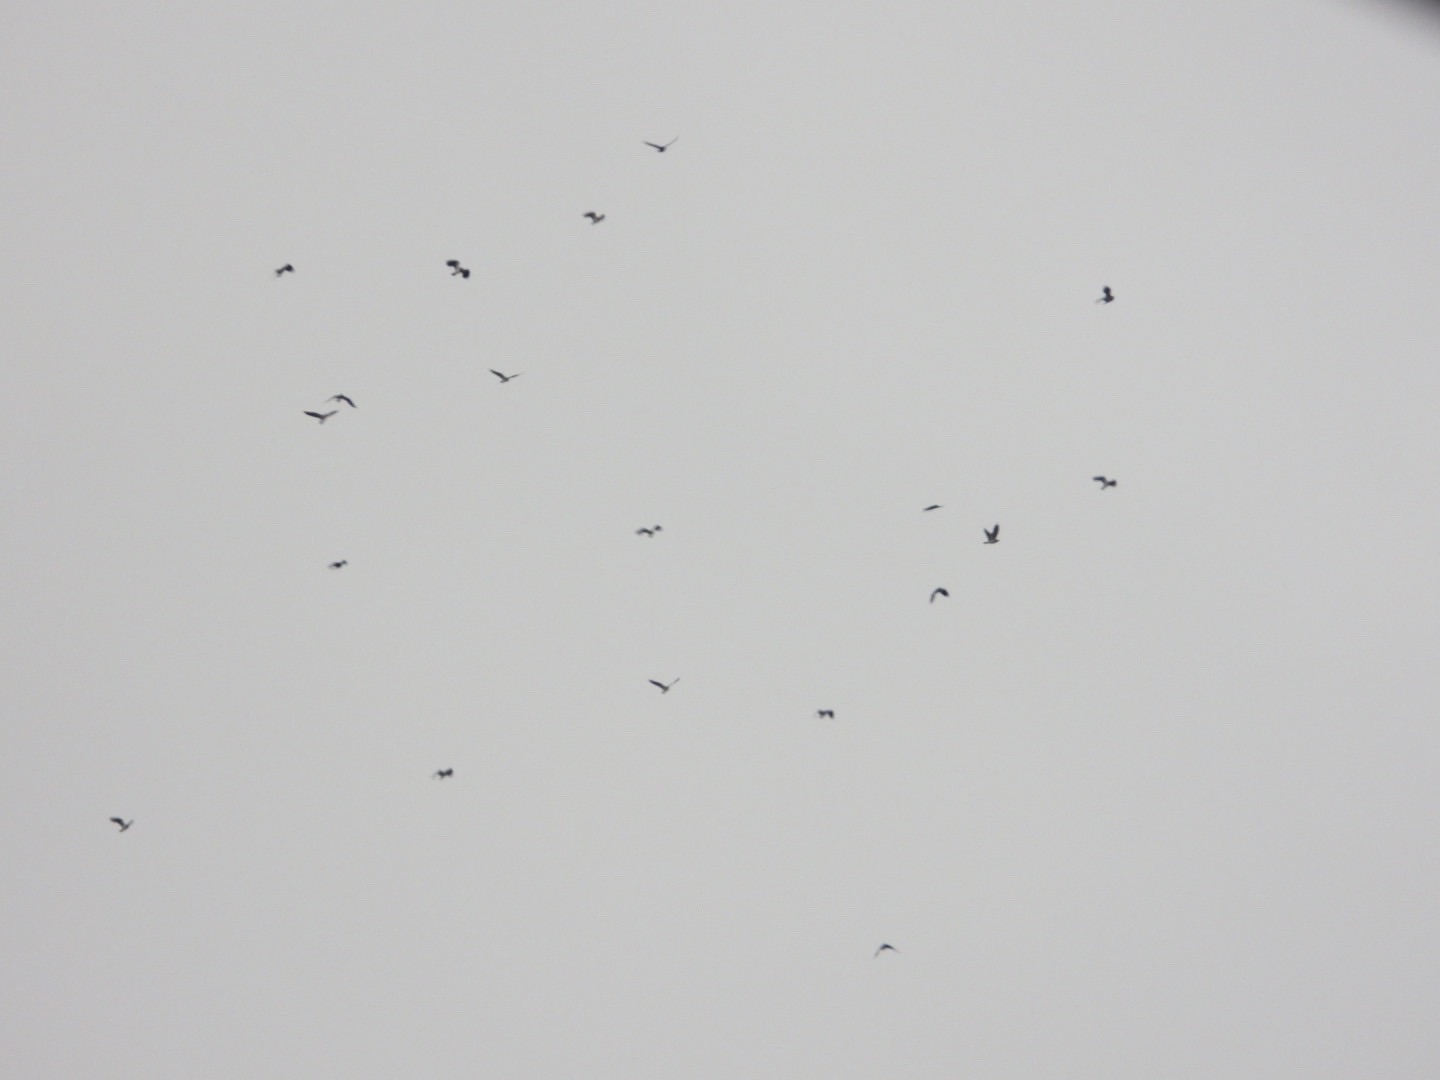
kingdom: Animalia
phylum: Chordata
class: Aves
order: Charadriiformes
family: Charadriidae
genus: Vanellus
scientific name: Vanellus vanellus
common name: Vibe
